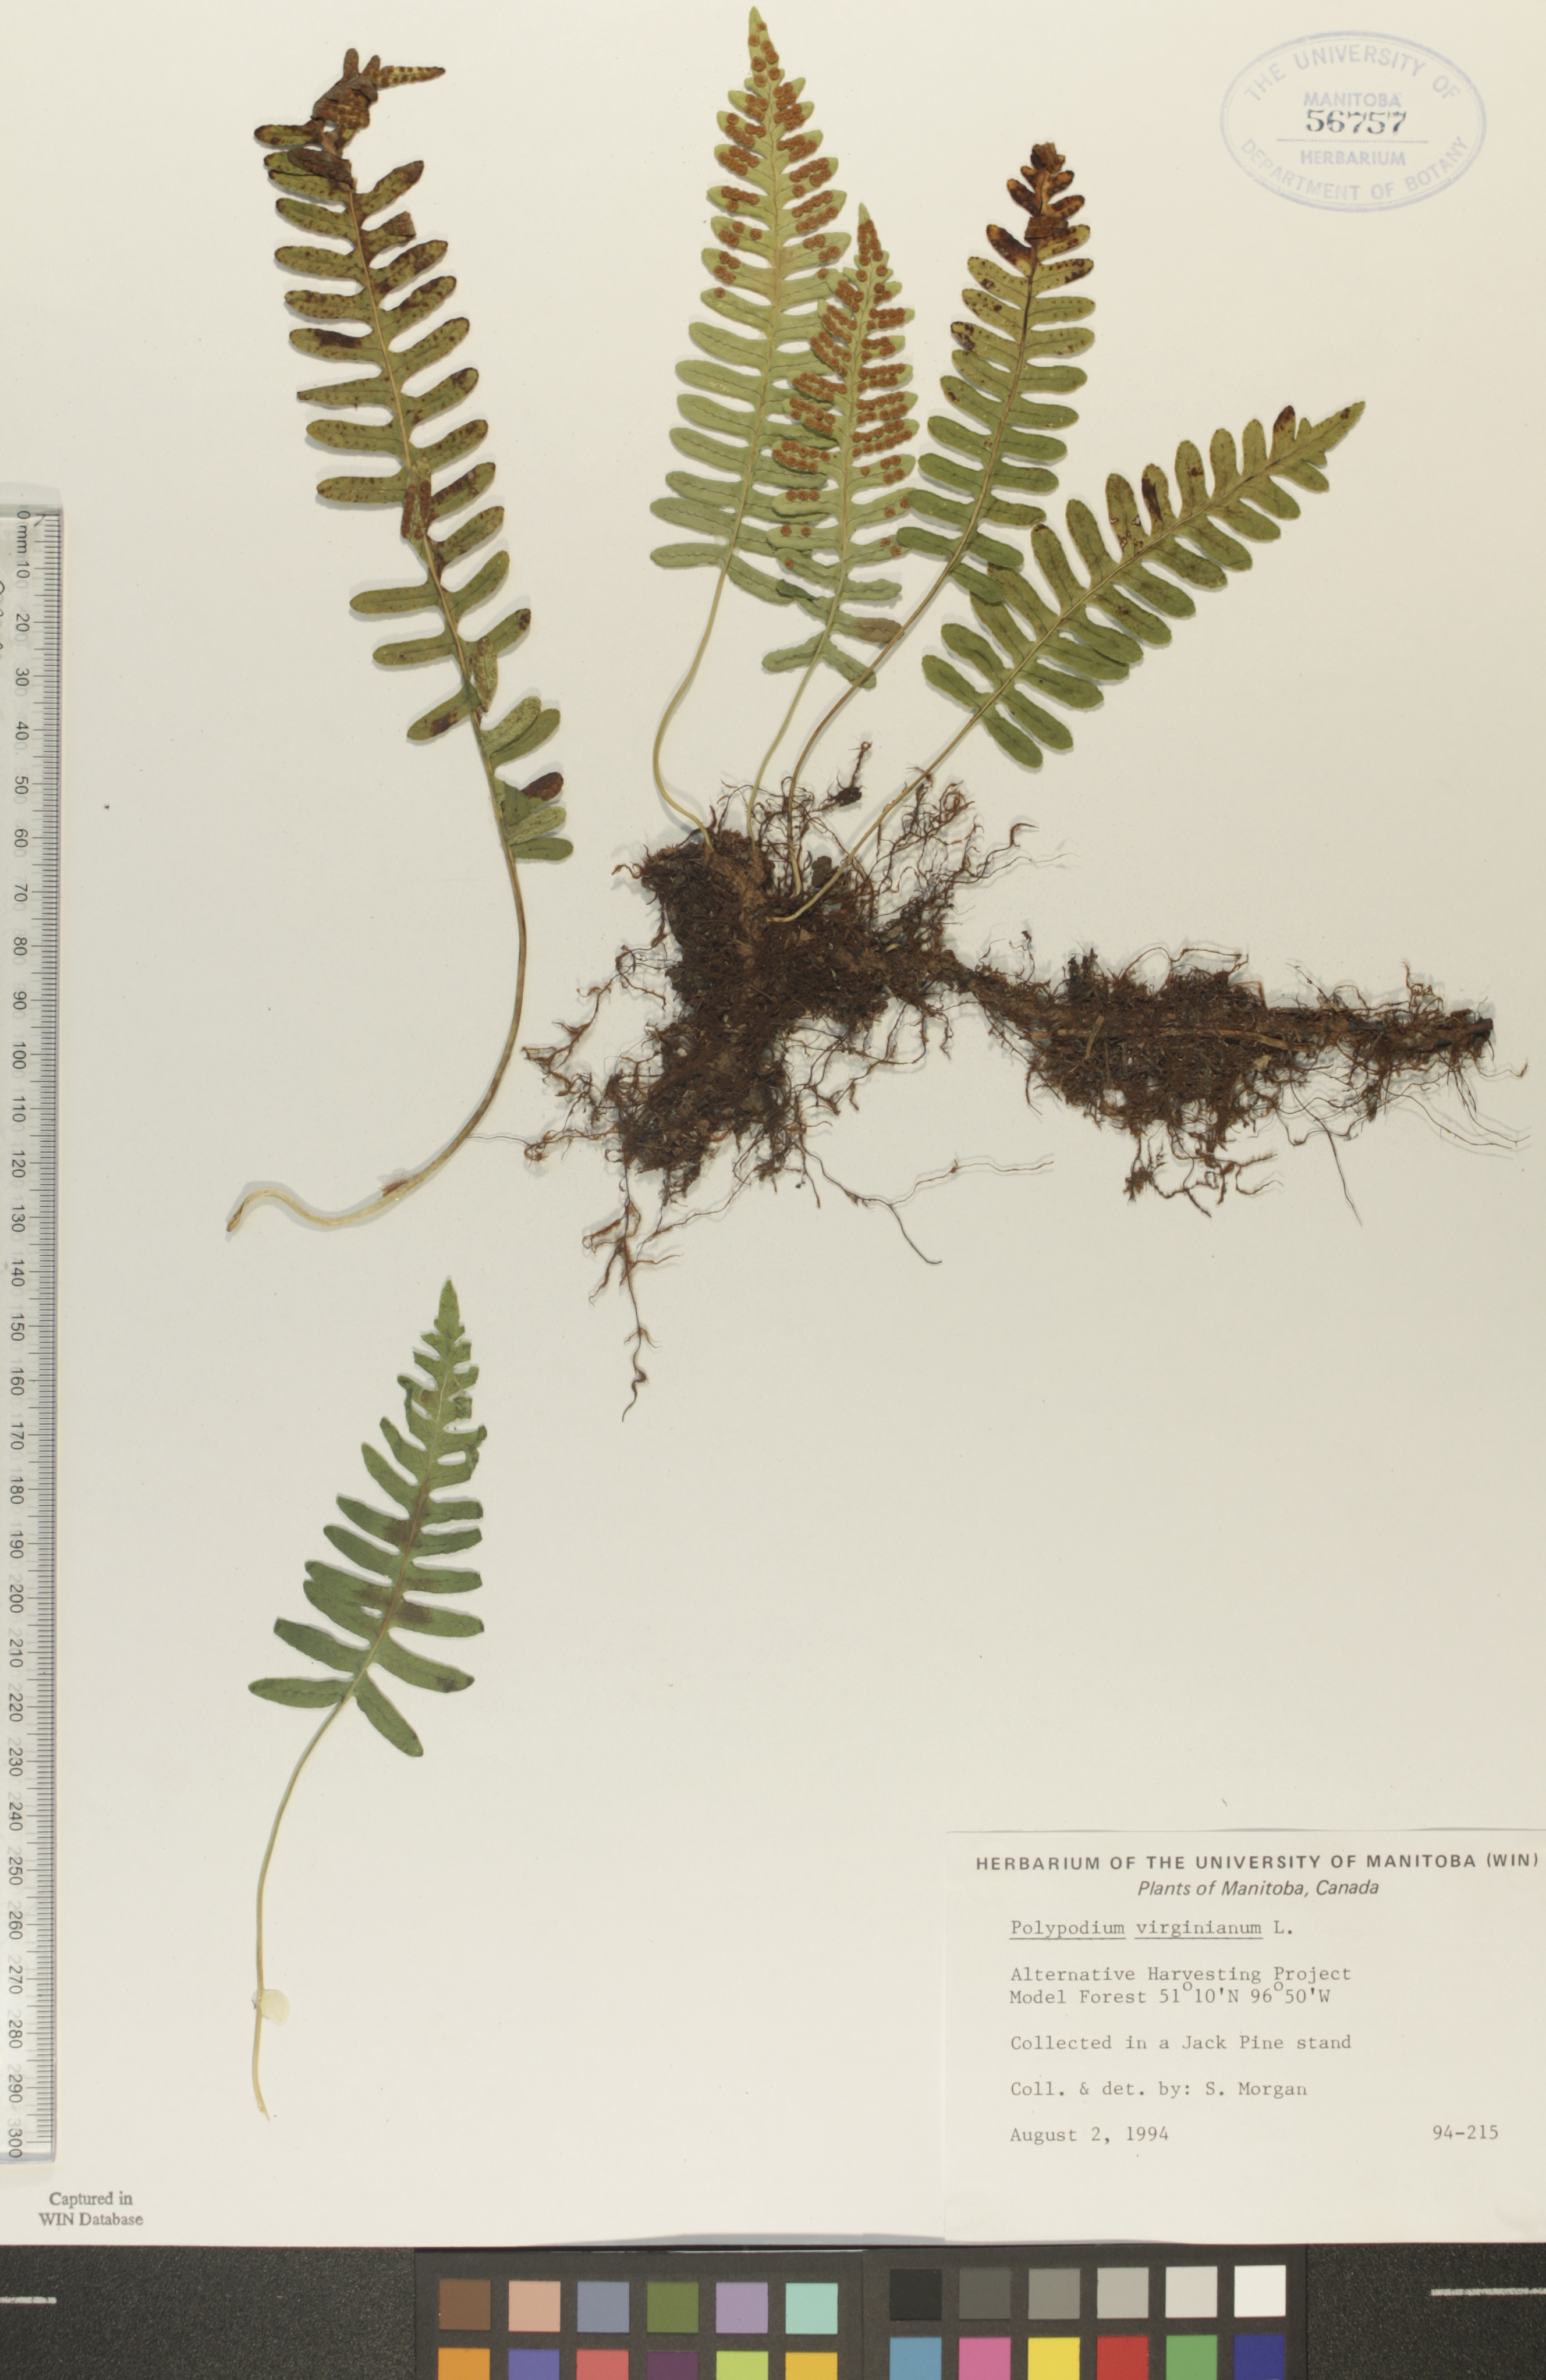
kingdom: Plantae
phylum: Tracheophyta
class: Polypodiopsida
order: Polypodiales
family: Polypodiaceae
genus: Polypodium
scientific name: Polypodium virginianum
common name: American wall fern
